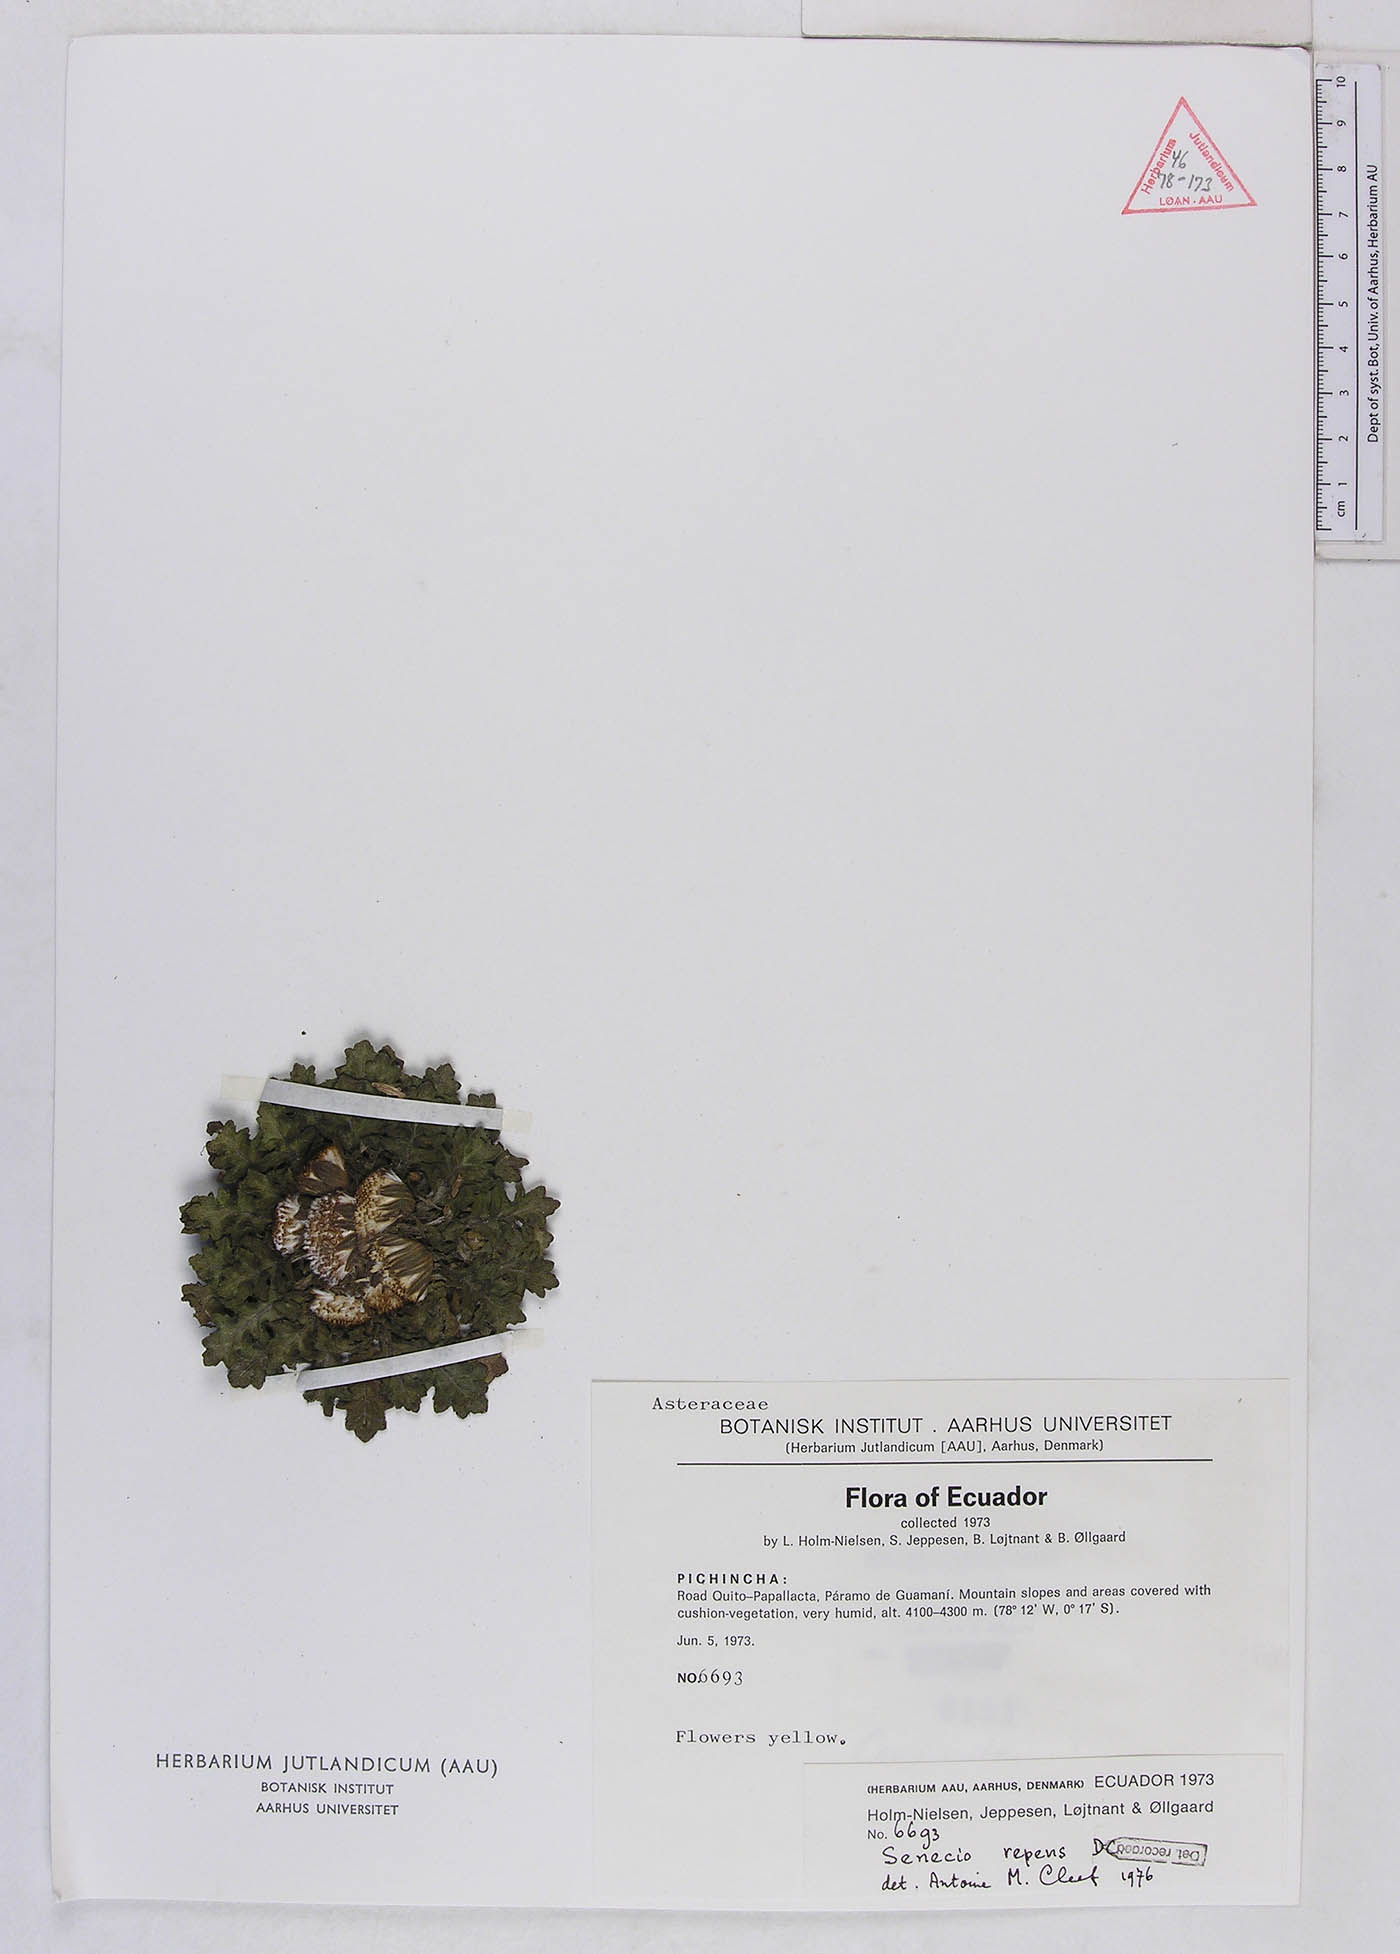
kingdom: Plantae
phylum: Tracheophyta
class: Magnoliopsida
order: Asterales
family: Asteraceae
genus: Senecio
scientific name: Senecio sarracenicus
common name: Broad-leaved ragwort
